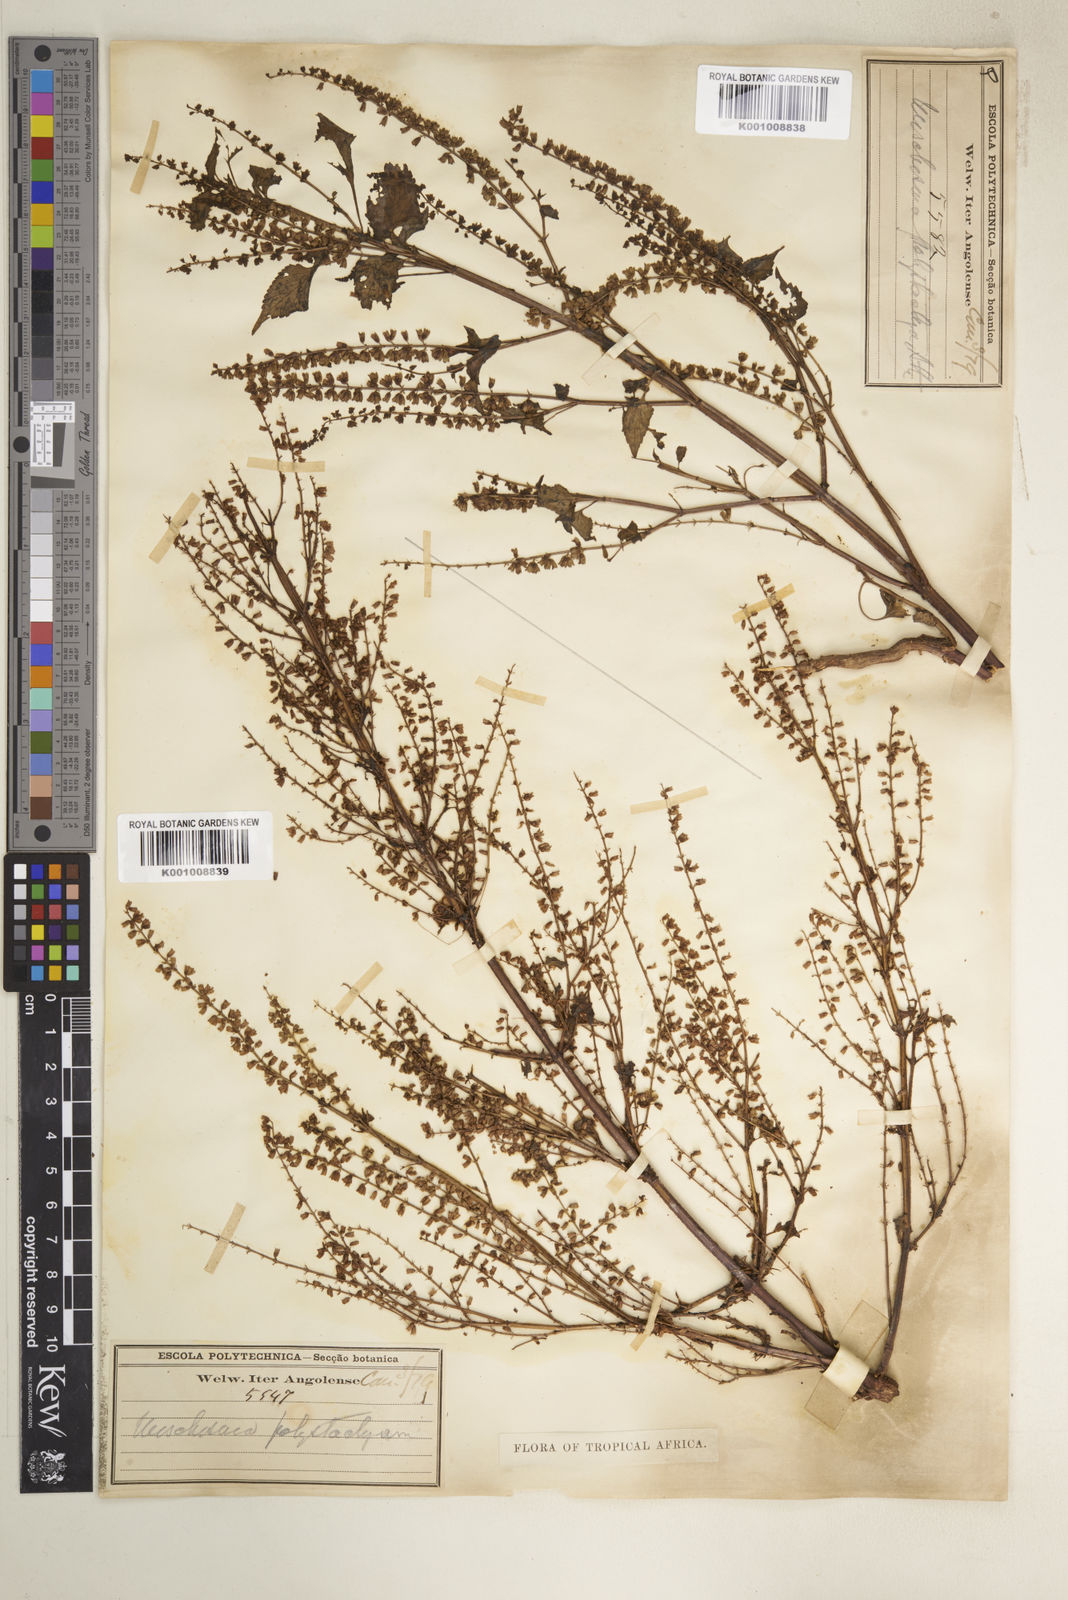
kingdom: Plantae
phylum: Tracheophyta
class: Magnoliopsida
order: Lamiales
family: Lamiaceae
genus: Basilicum
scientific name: Basilicum polystachyon
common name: Musk-basil
